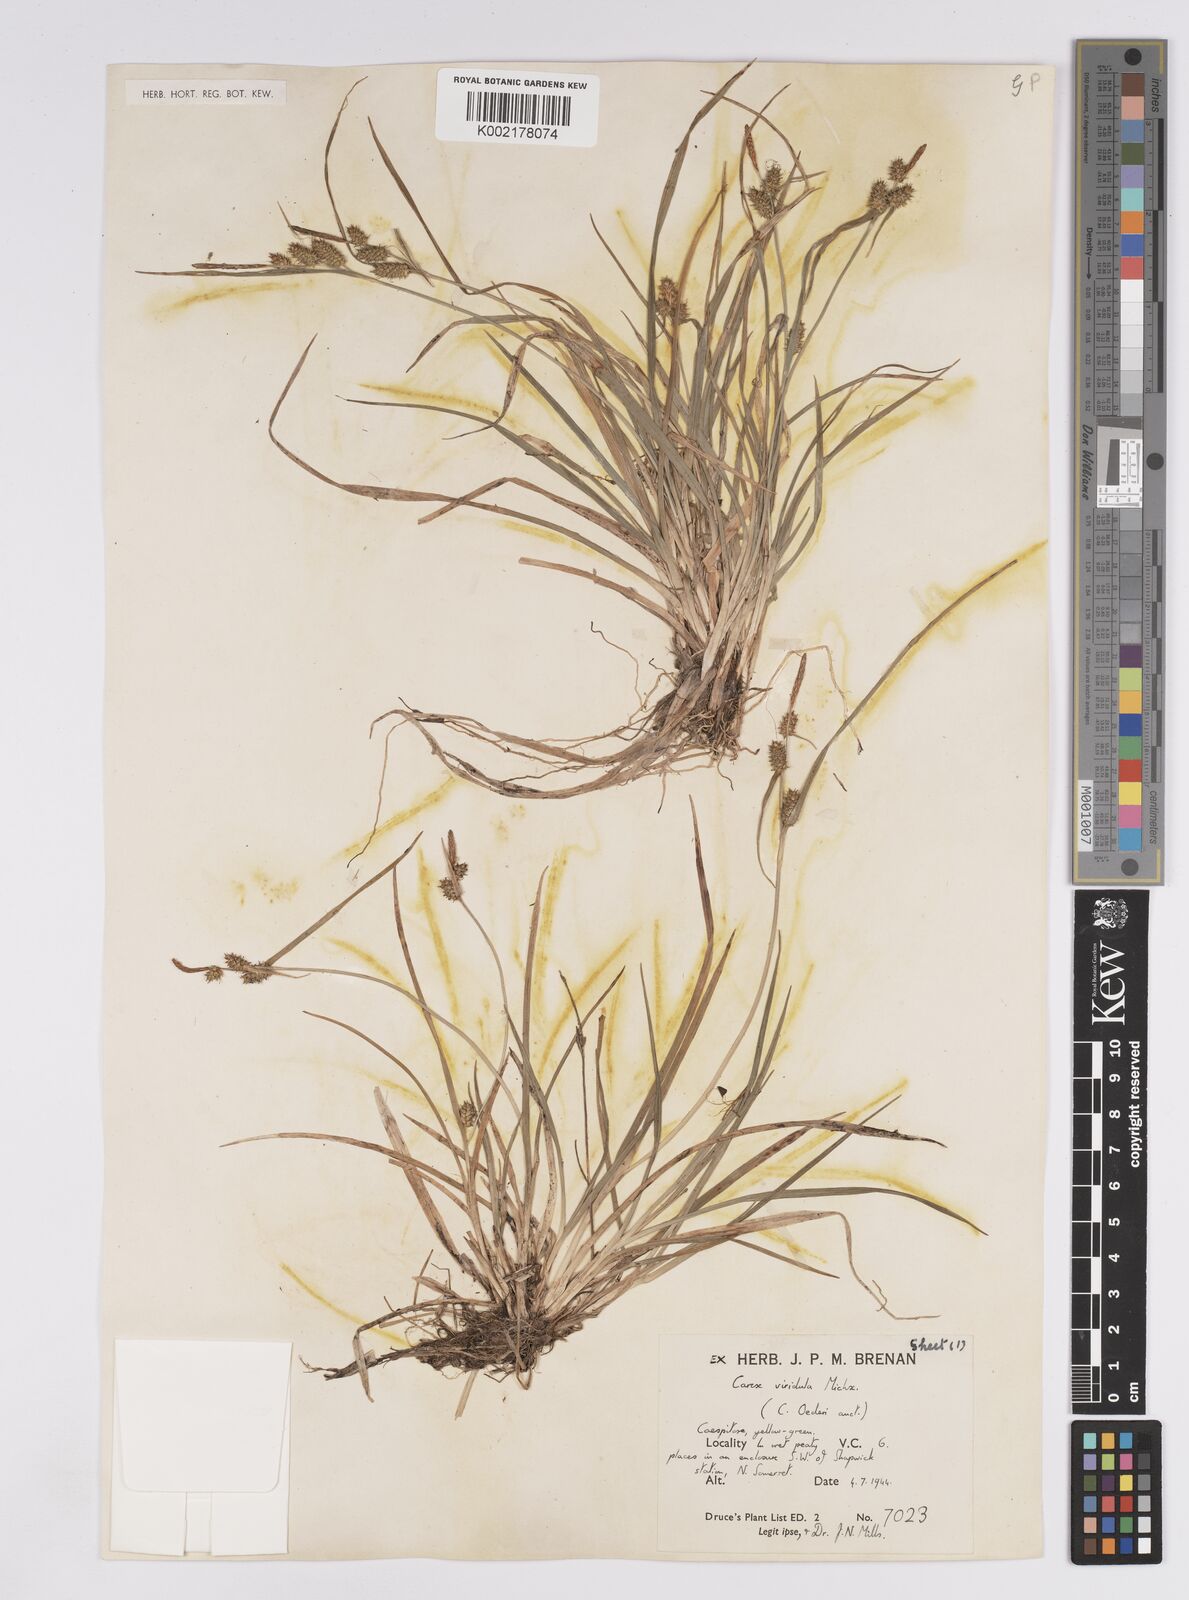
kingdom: Plantae
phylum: Tracheophyta
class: Liliopsida
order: Poales
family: Cyperaceae
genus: Carex
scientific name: Carex demissa
